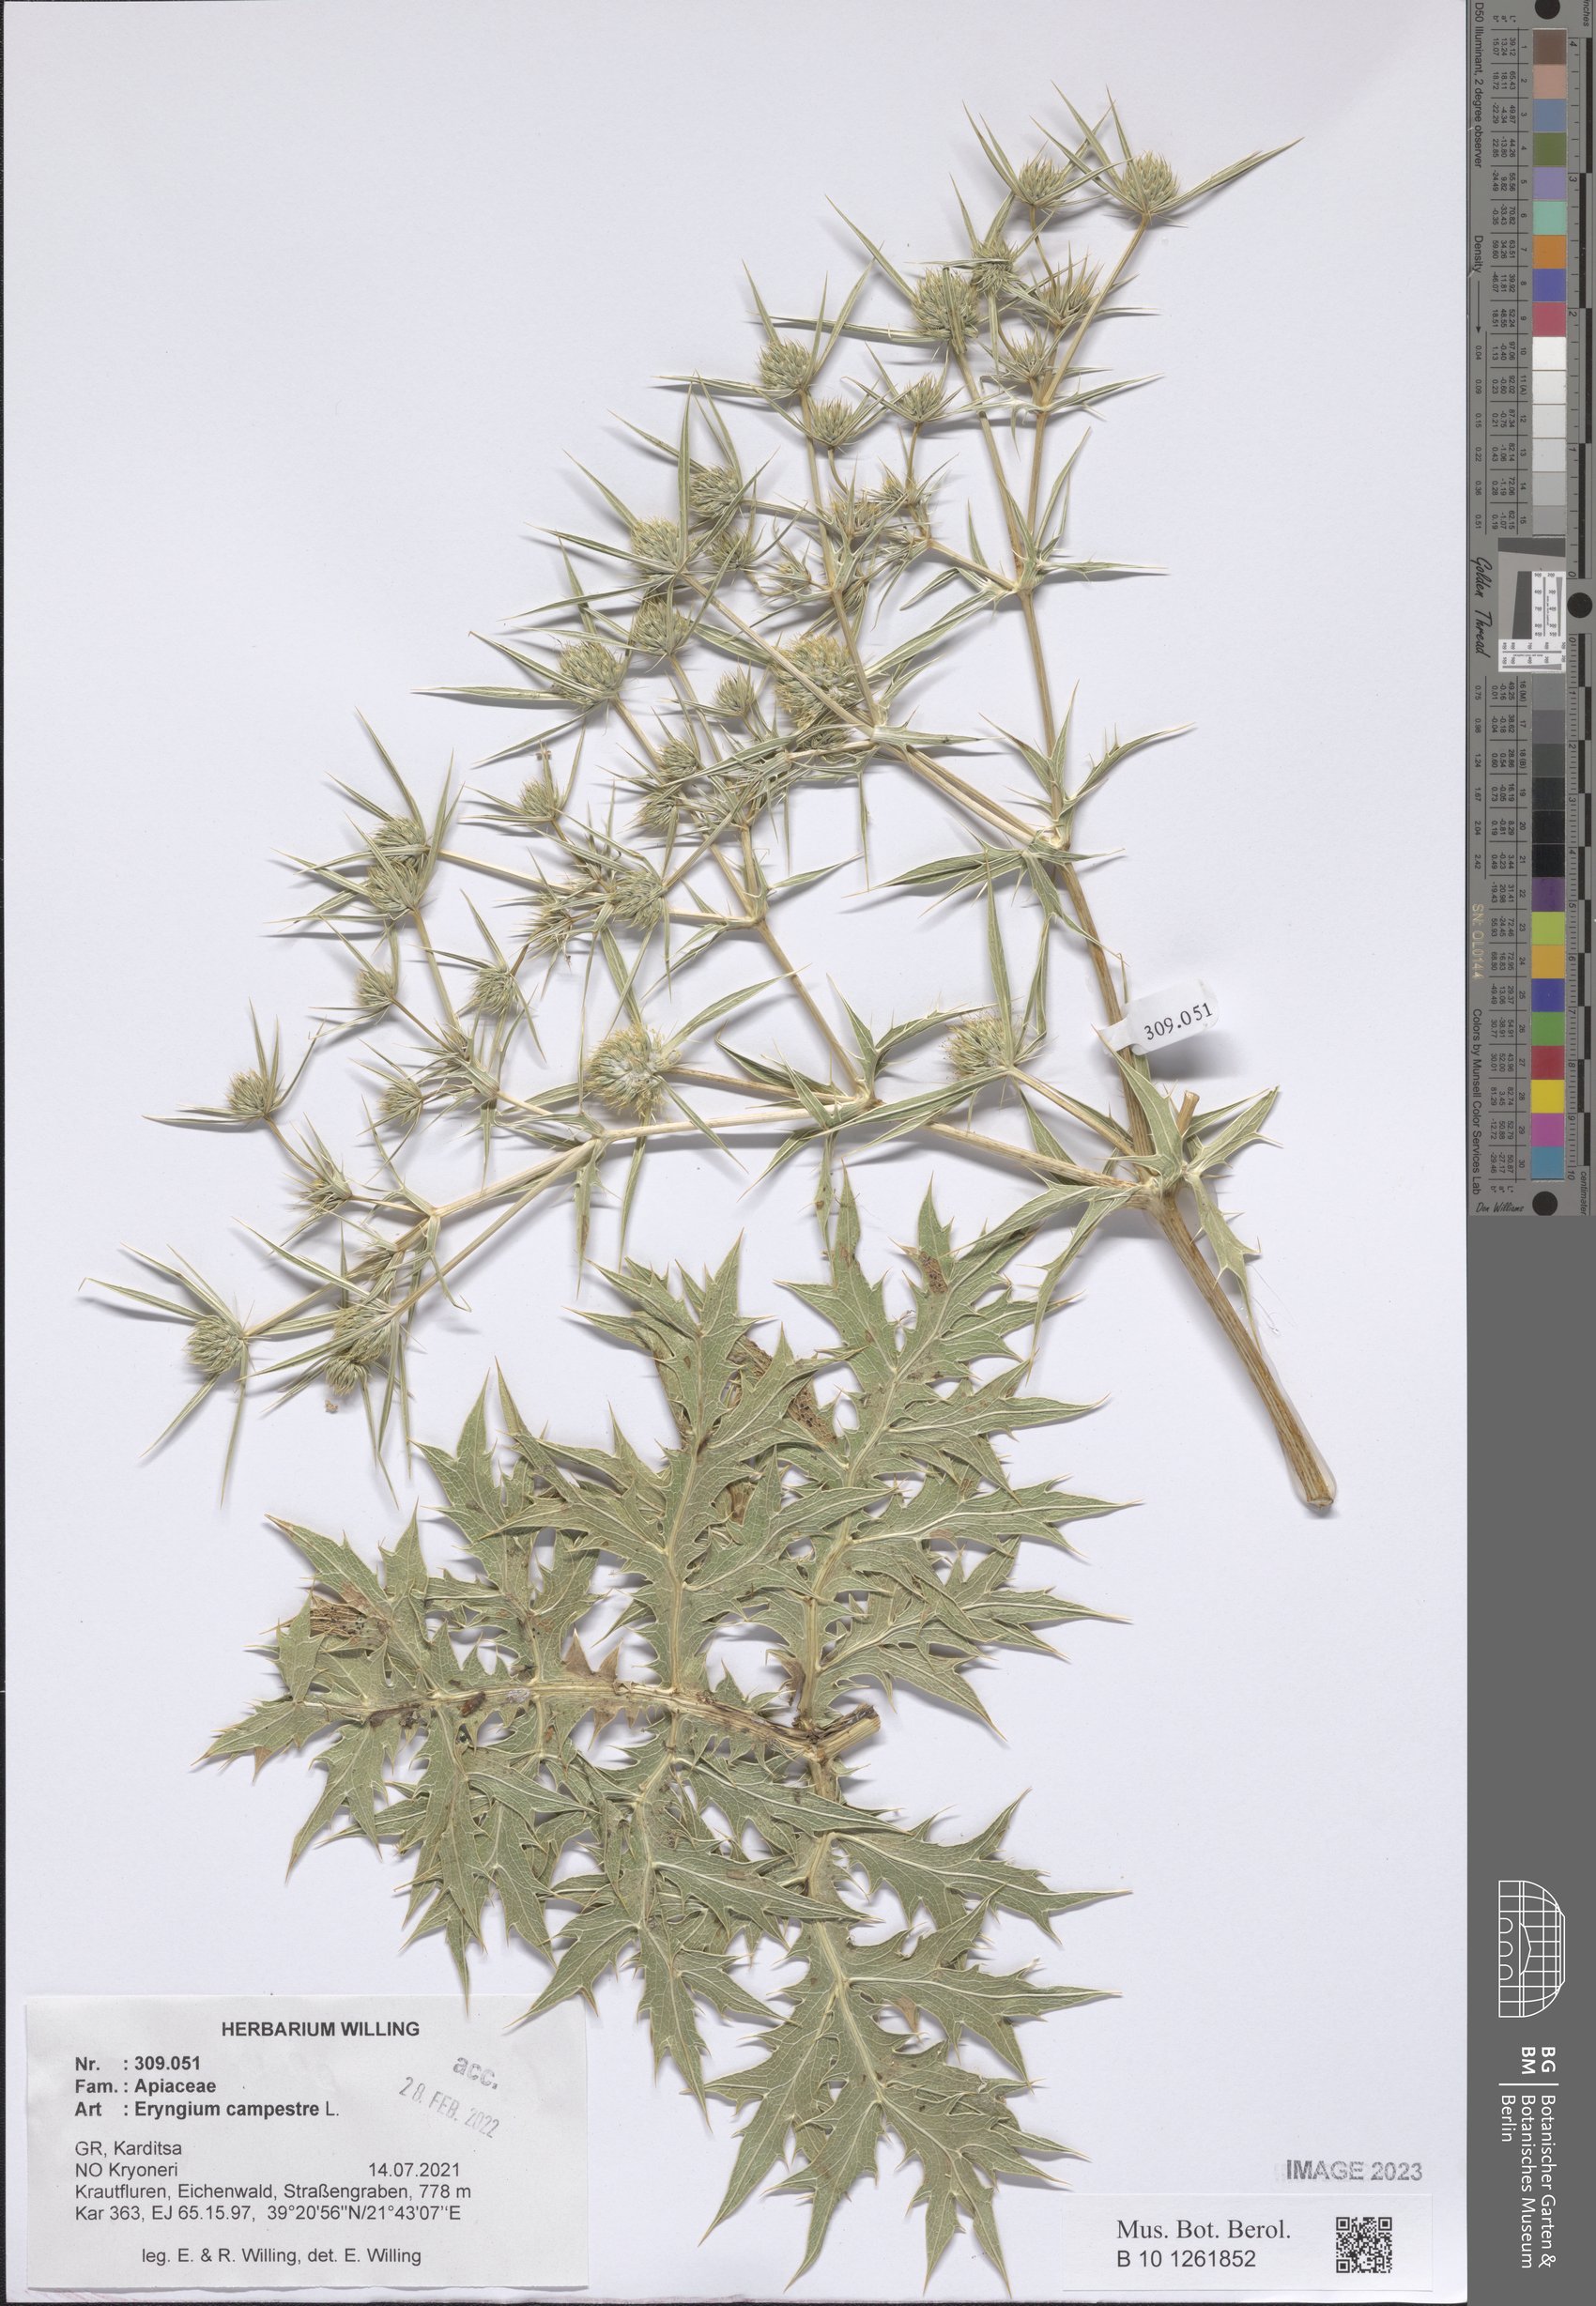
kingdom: Plantae
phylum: Tracheophyta
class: Magnoliopsida
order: Apiales
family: Apiaceae
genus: Eryngium
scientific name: Eryngium campestre
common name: Field eryngo
